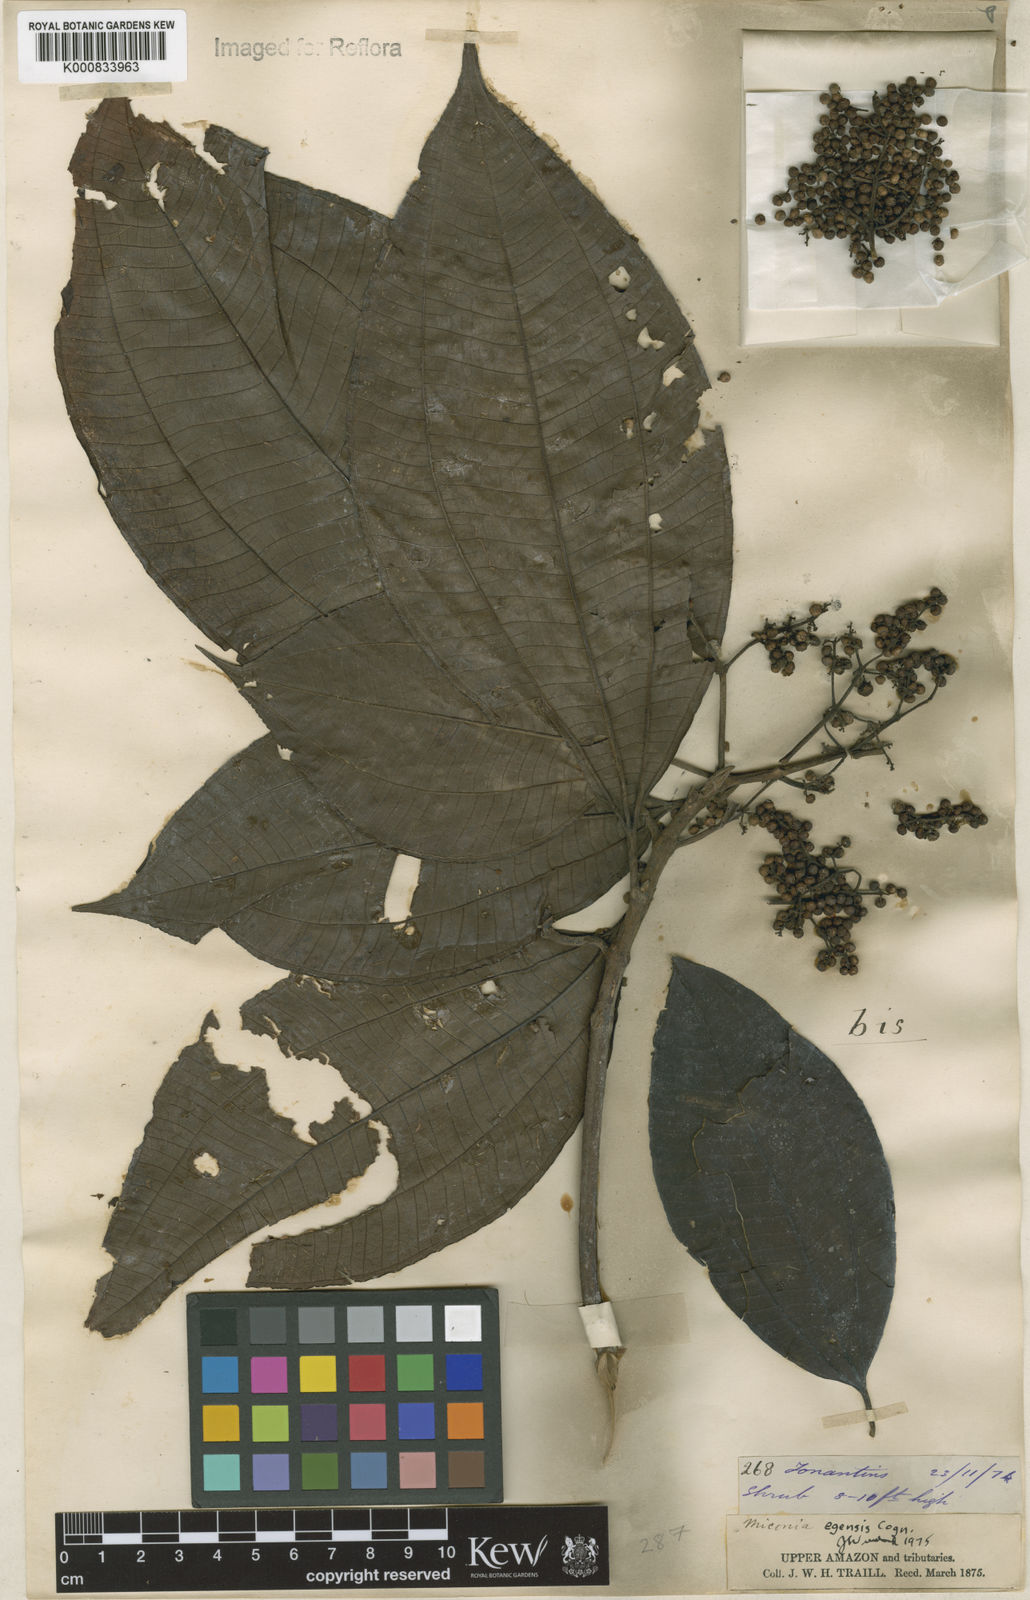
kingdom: Plantae
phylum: Tracheophyta
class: Magnoliopsida
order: Myrtales
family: Melastomataceae
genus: Miconia
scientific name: Miconia egensis
